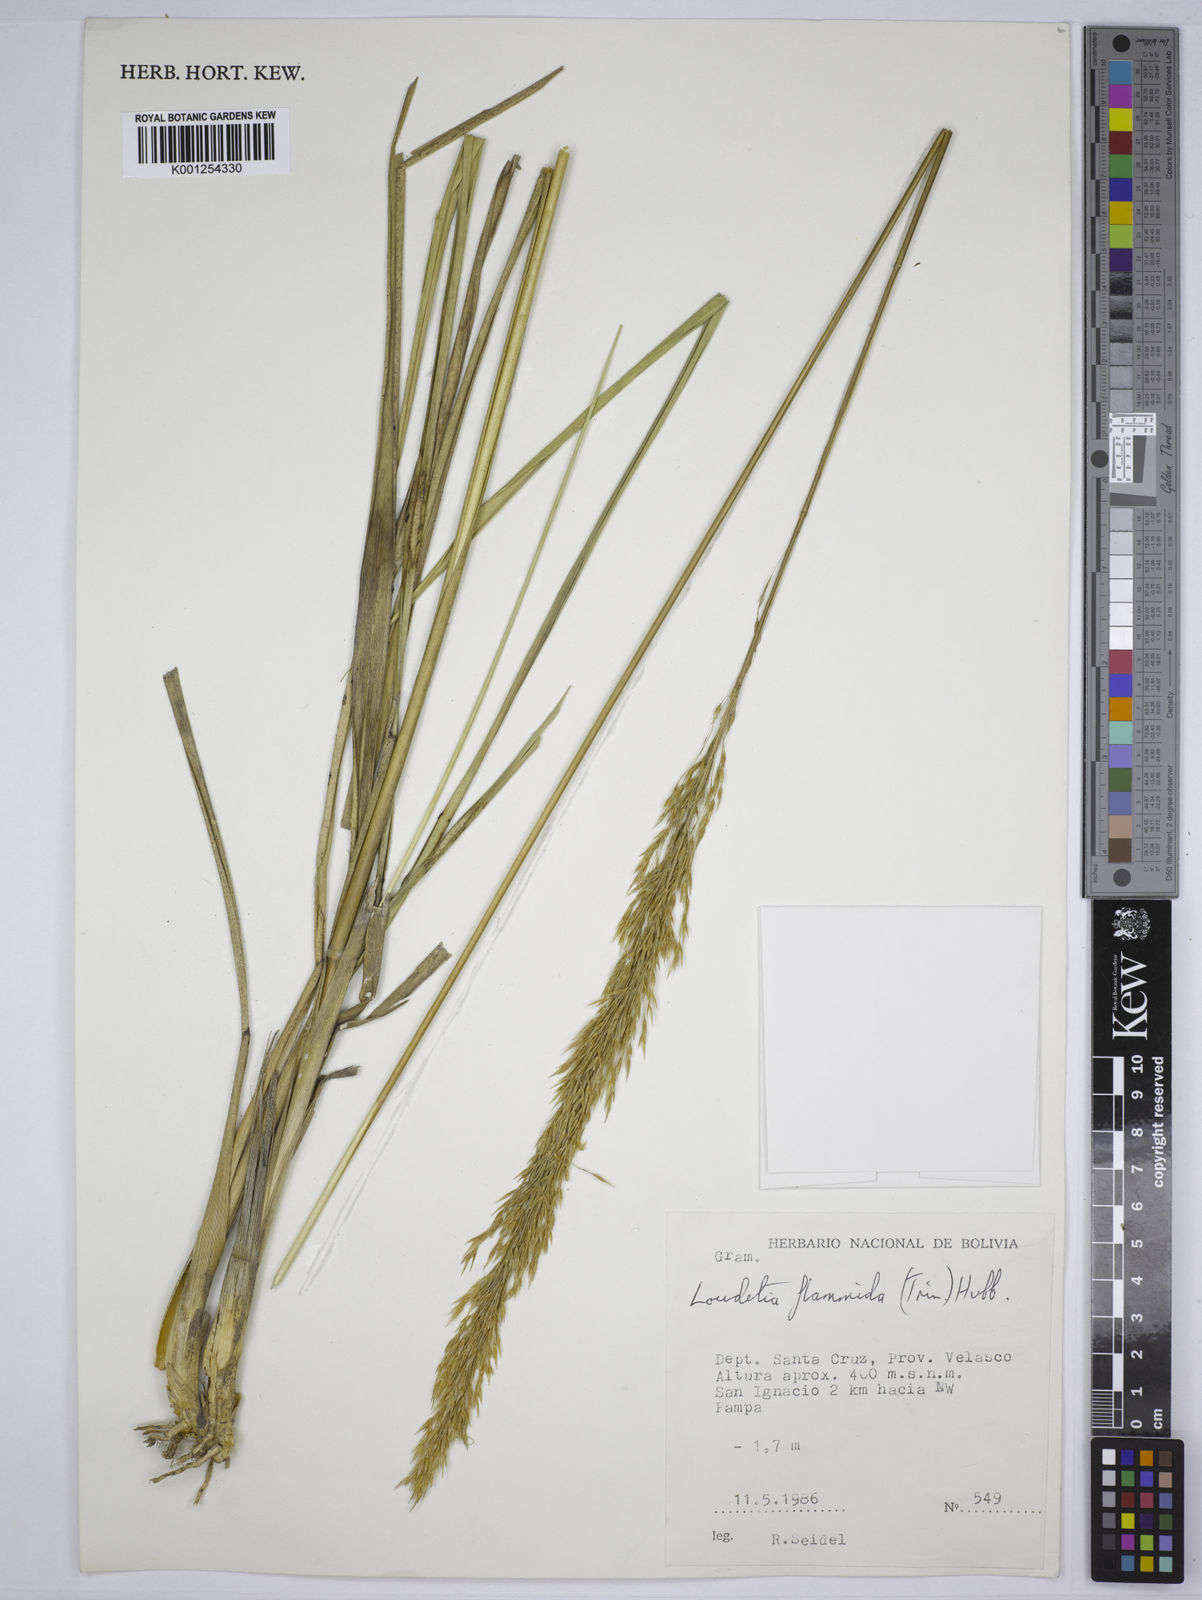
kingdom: Plantae
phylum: Tracheophyta
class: Liliopsida
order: Poales
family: Poaceae
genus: Loudetia
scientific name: Loudetia flammida
